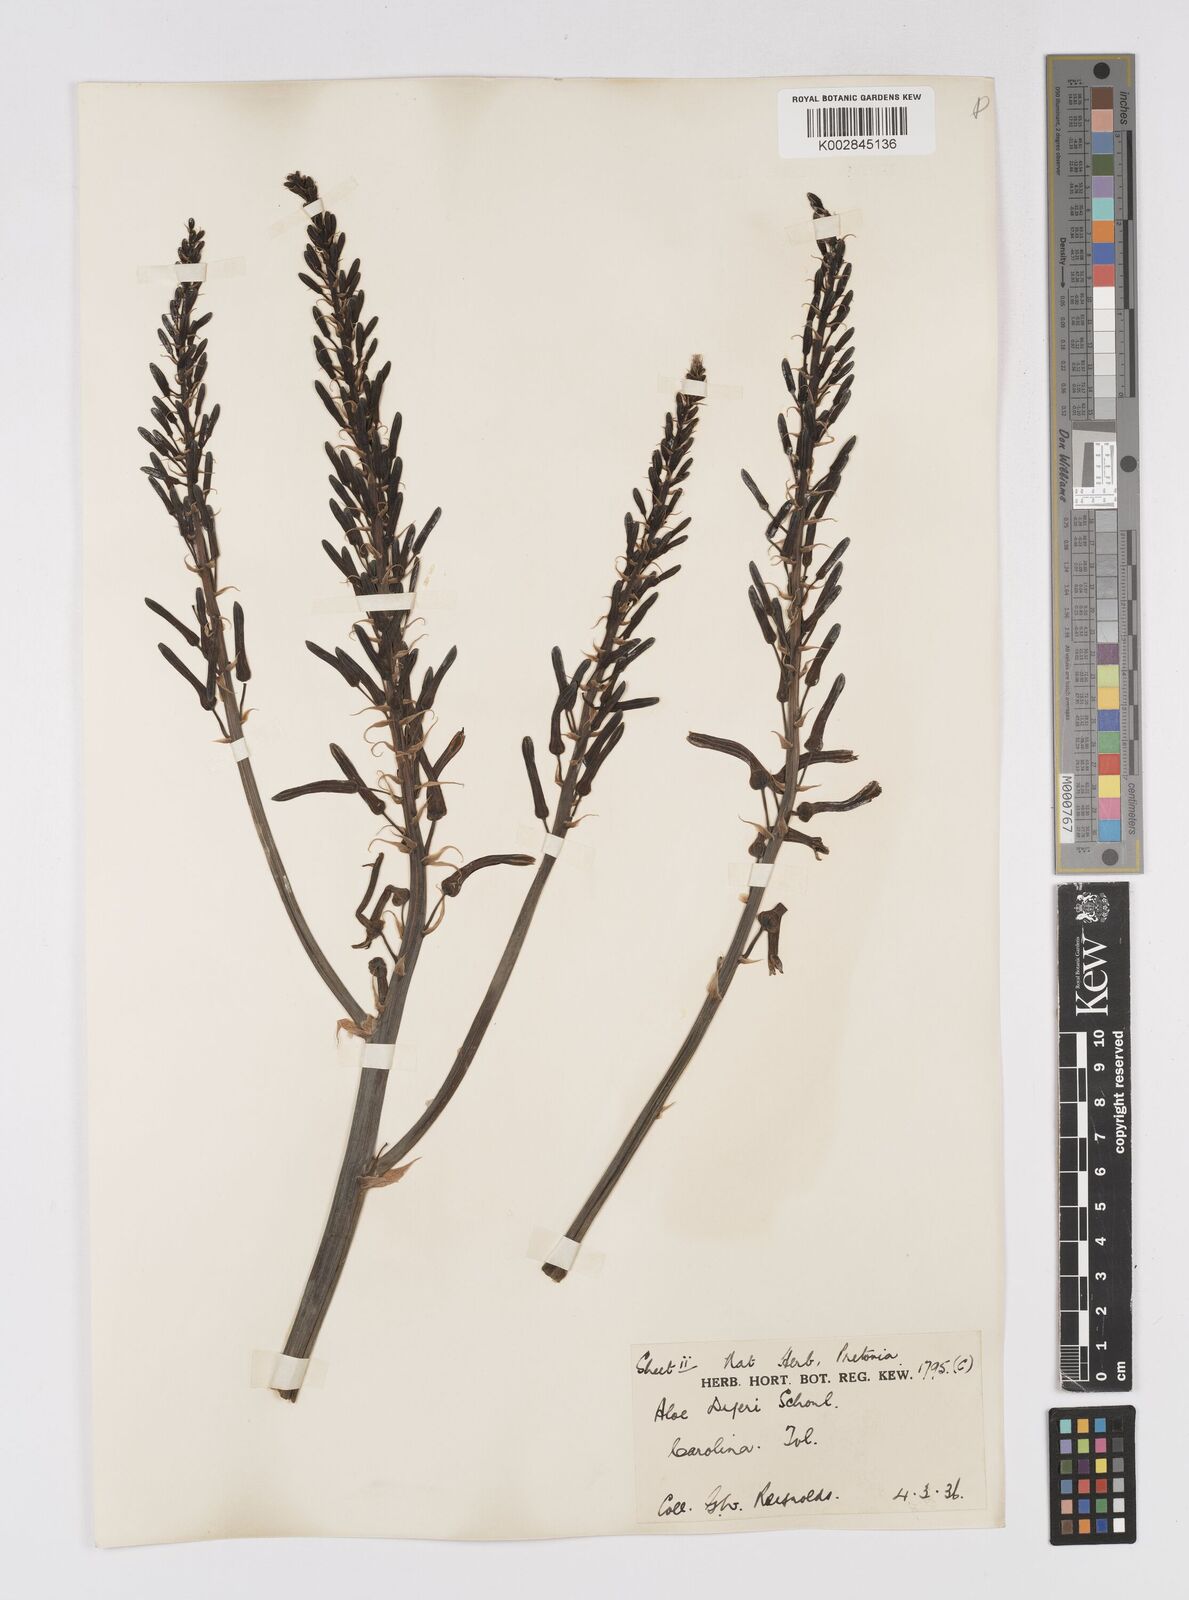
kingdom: Plantae
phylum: Tracheophyta
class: Liliopsida
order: Asparagales
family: Asphodelaceae
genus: Aloe
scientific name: Aloe dyeri
